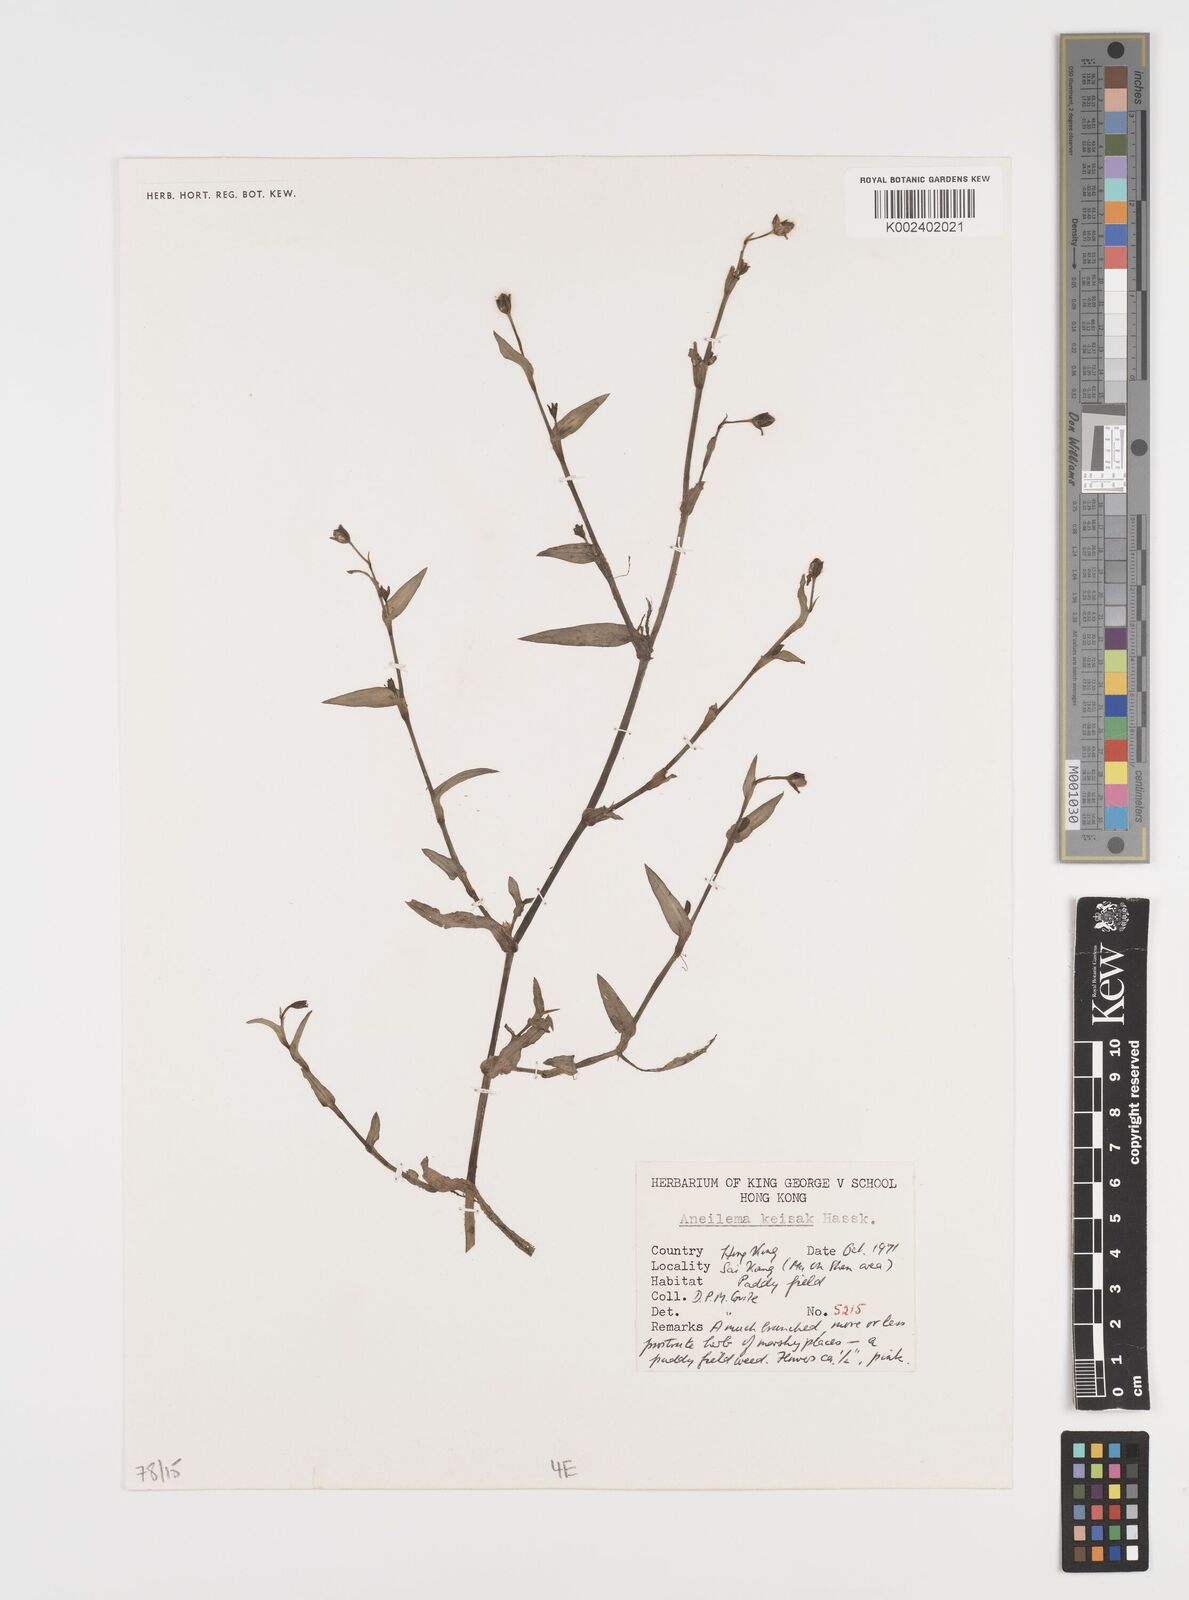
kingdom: Plantae
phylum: Tracheophyta
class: Liliopsida
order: Commelinales
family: Commelinaceae
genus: Murdannia
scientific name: Murdannia keisak
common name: Wartremoving herb
